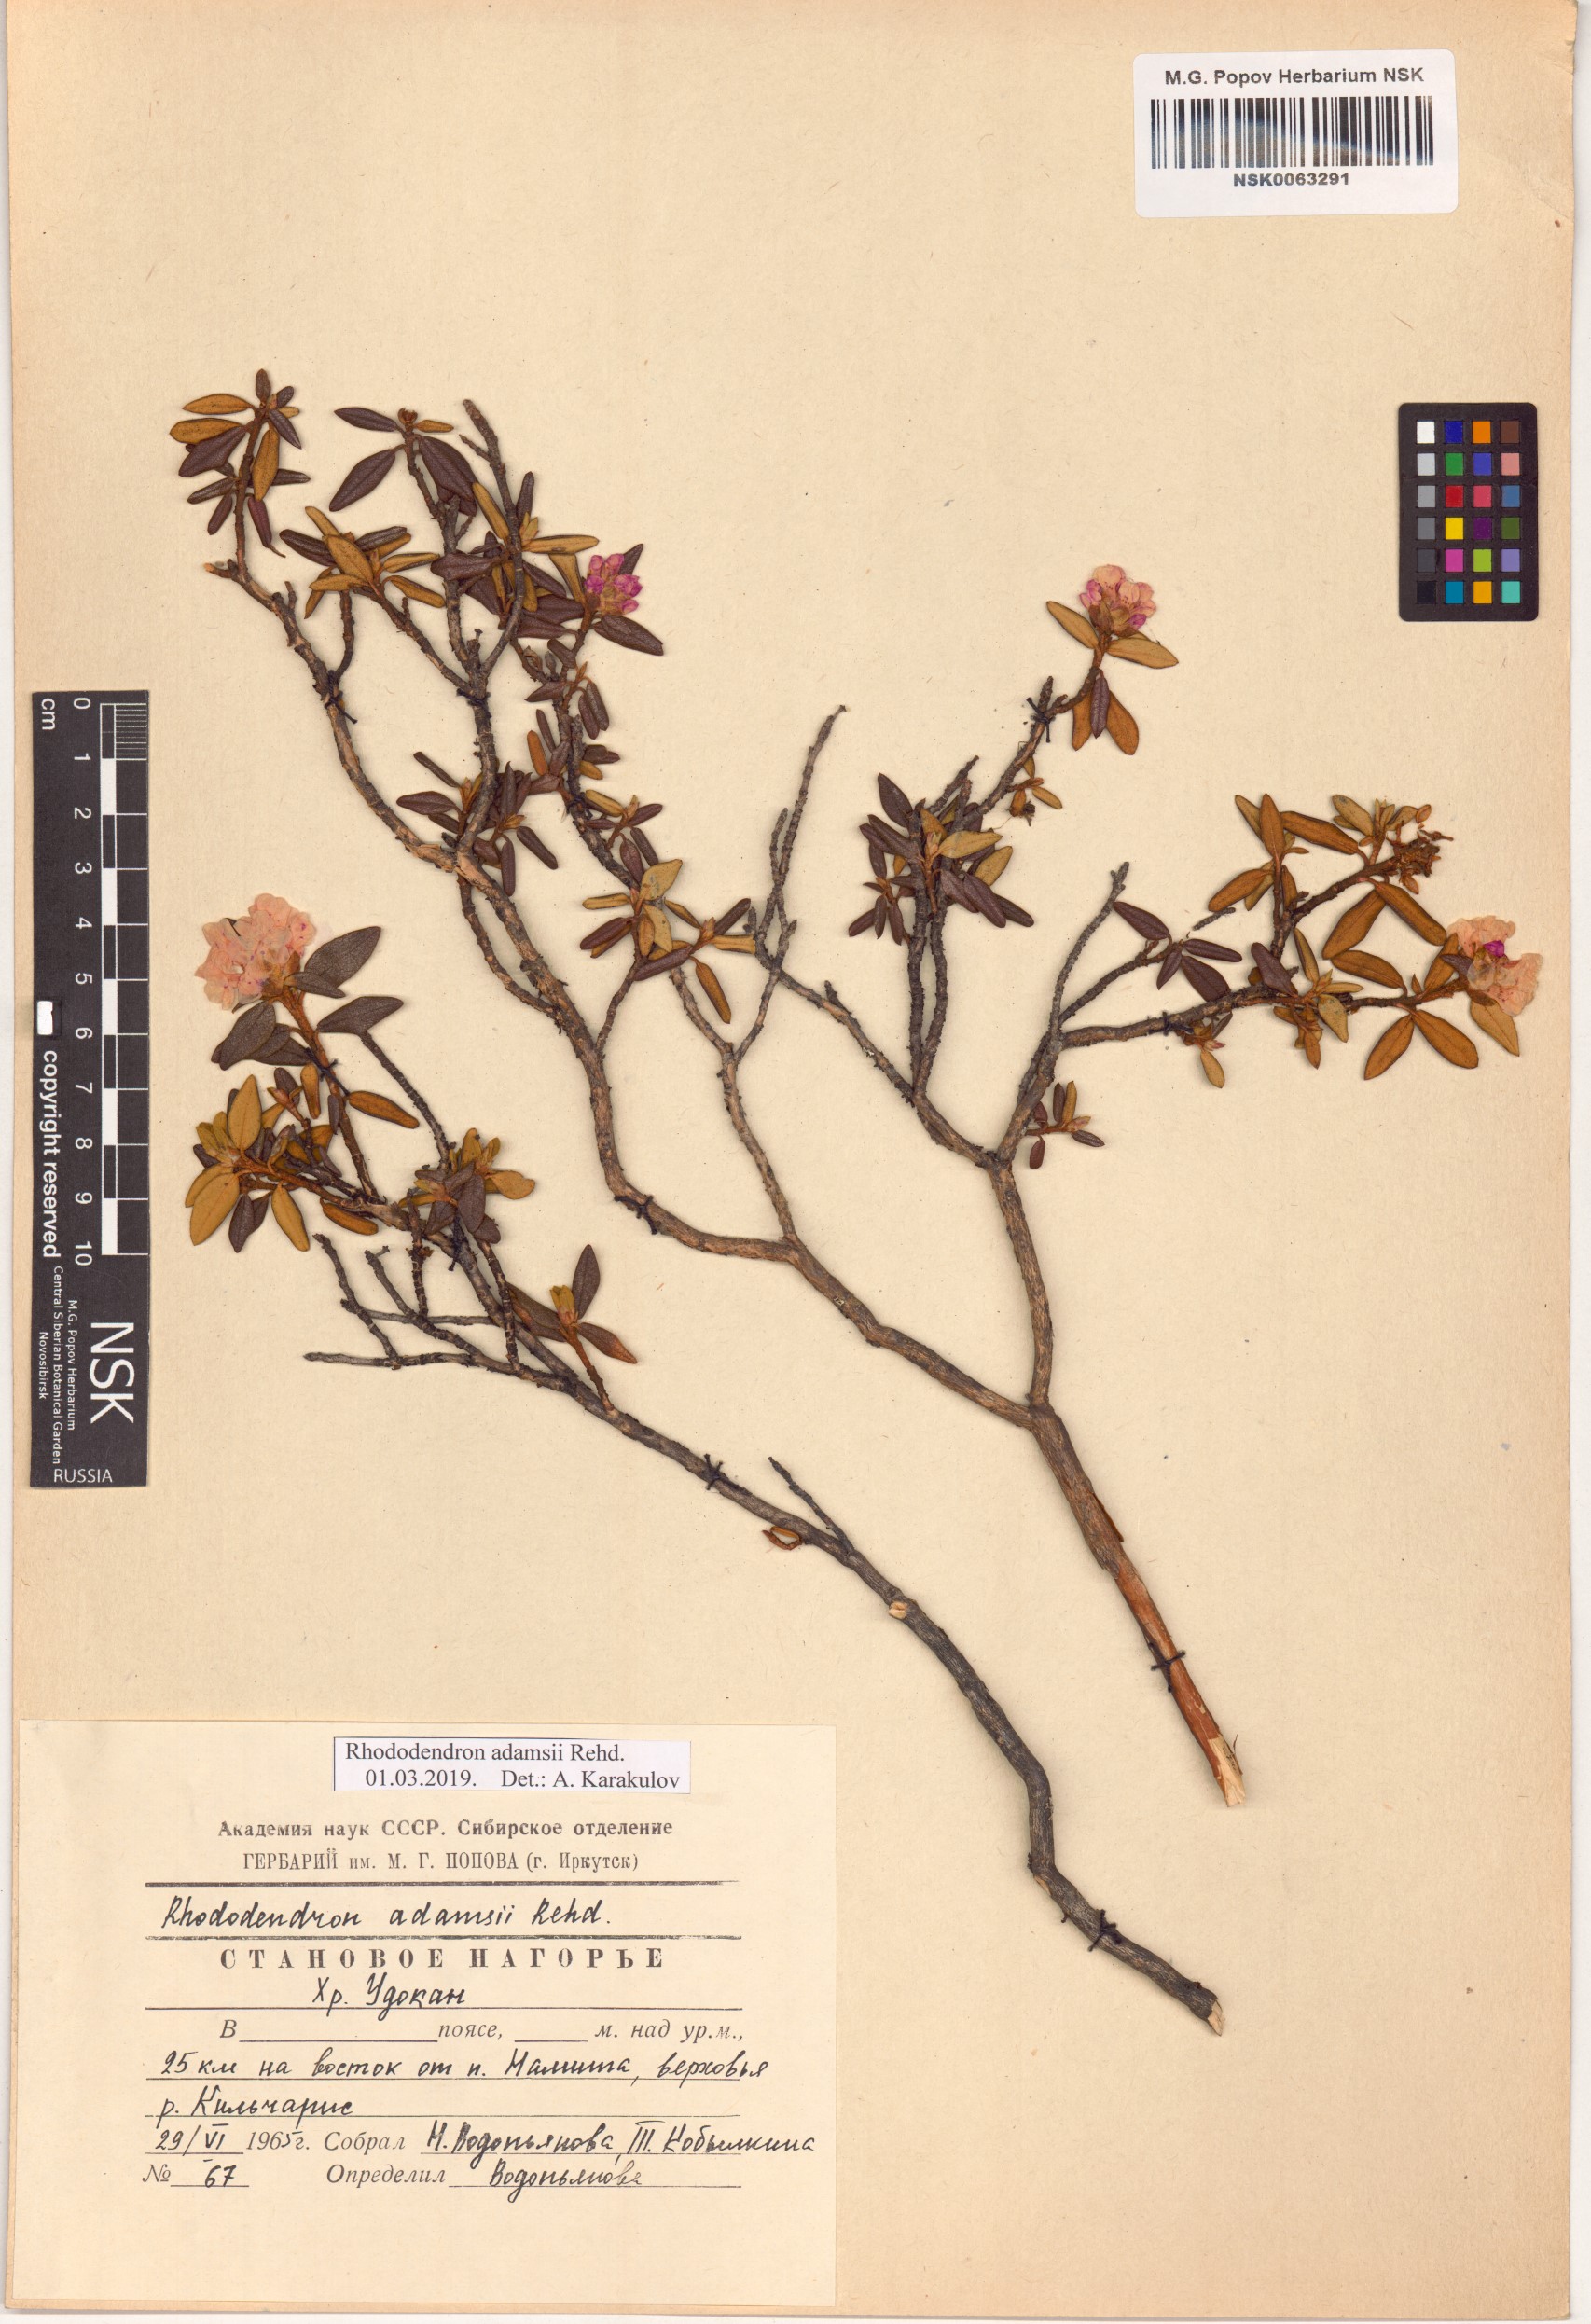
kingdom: Plantae
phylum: Tracheophyta
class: Magnoliopsida
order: Ericales
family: Ericaceae
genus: Rhododendron
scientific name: Rhododendron adamsii
